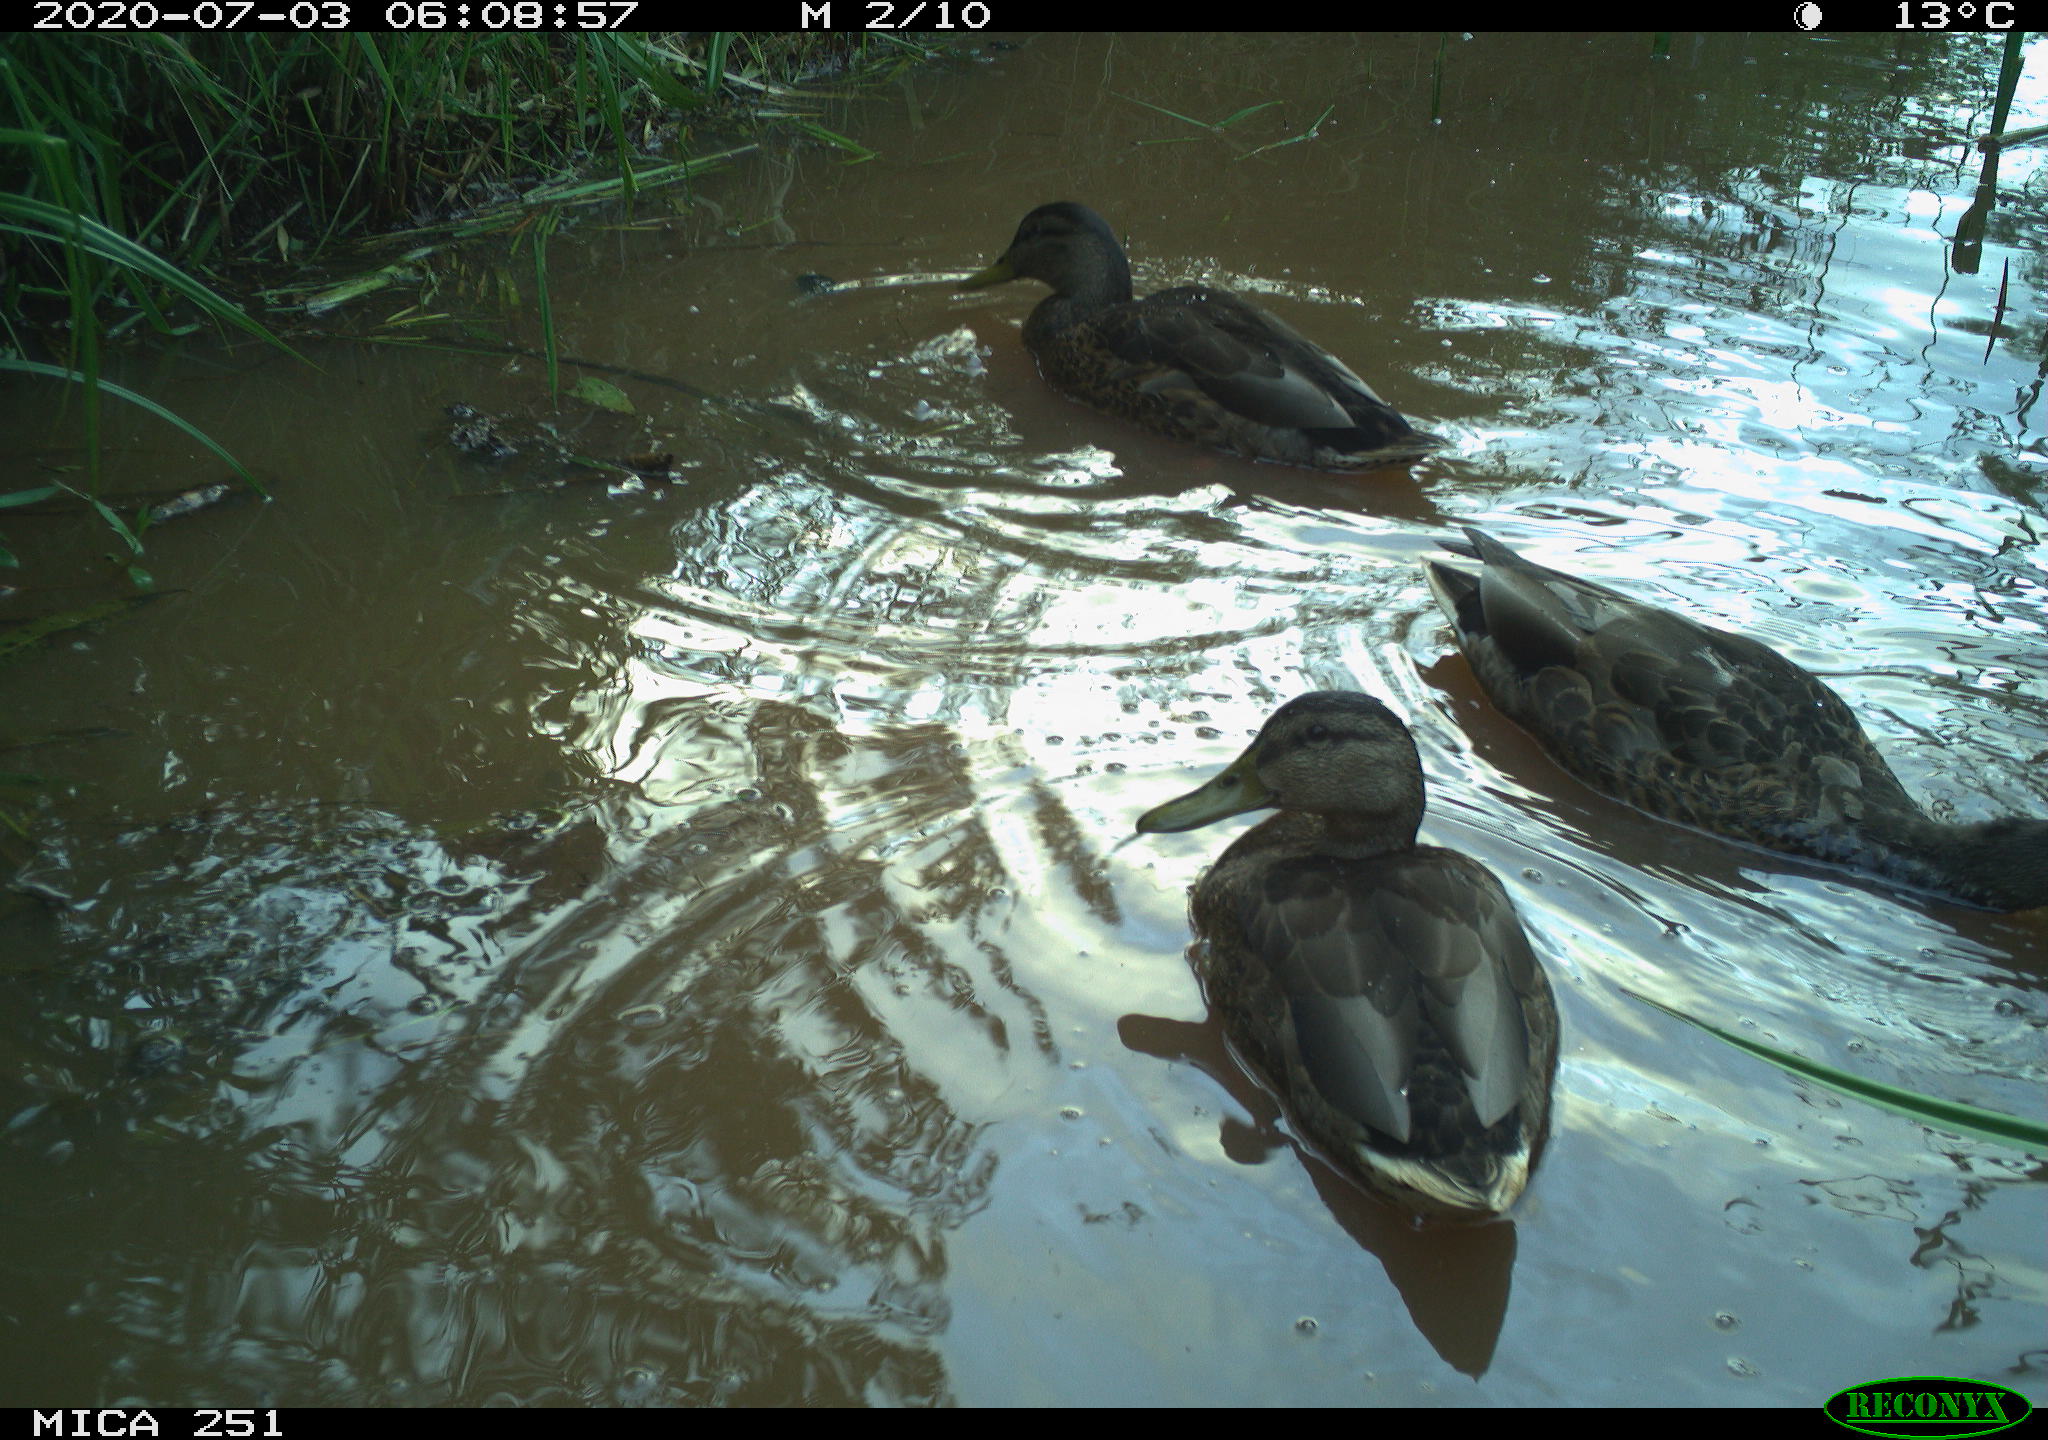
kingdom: Animalia
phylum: Chordata
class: Aves
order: Anseriformes
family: Anatidae
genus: Anas
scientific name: Anas platyrhynchos
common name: Mallard
